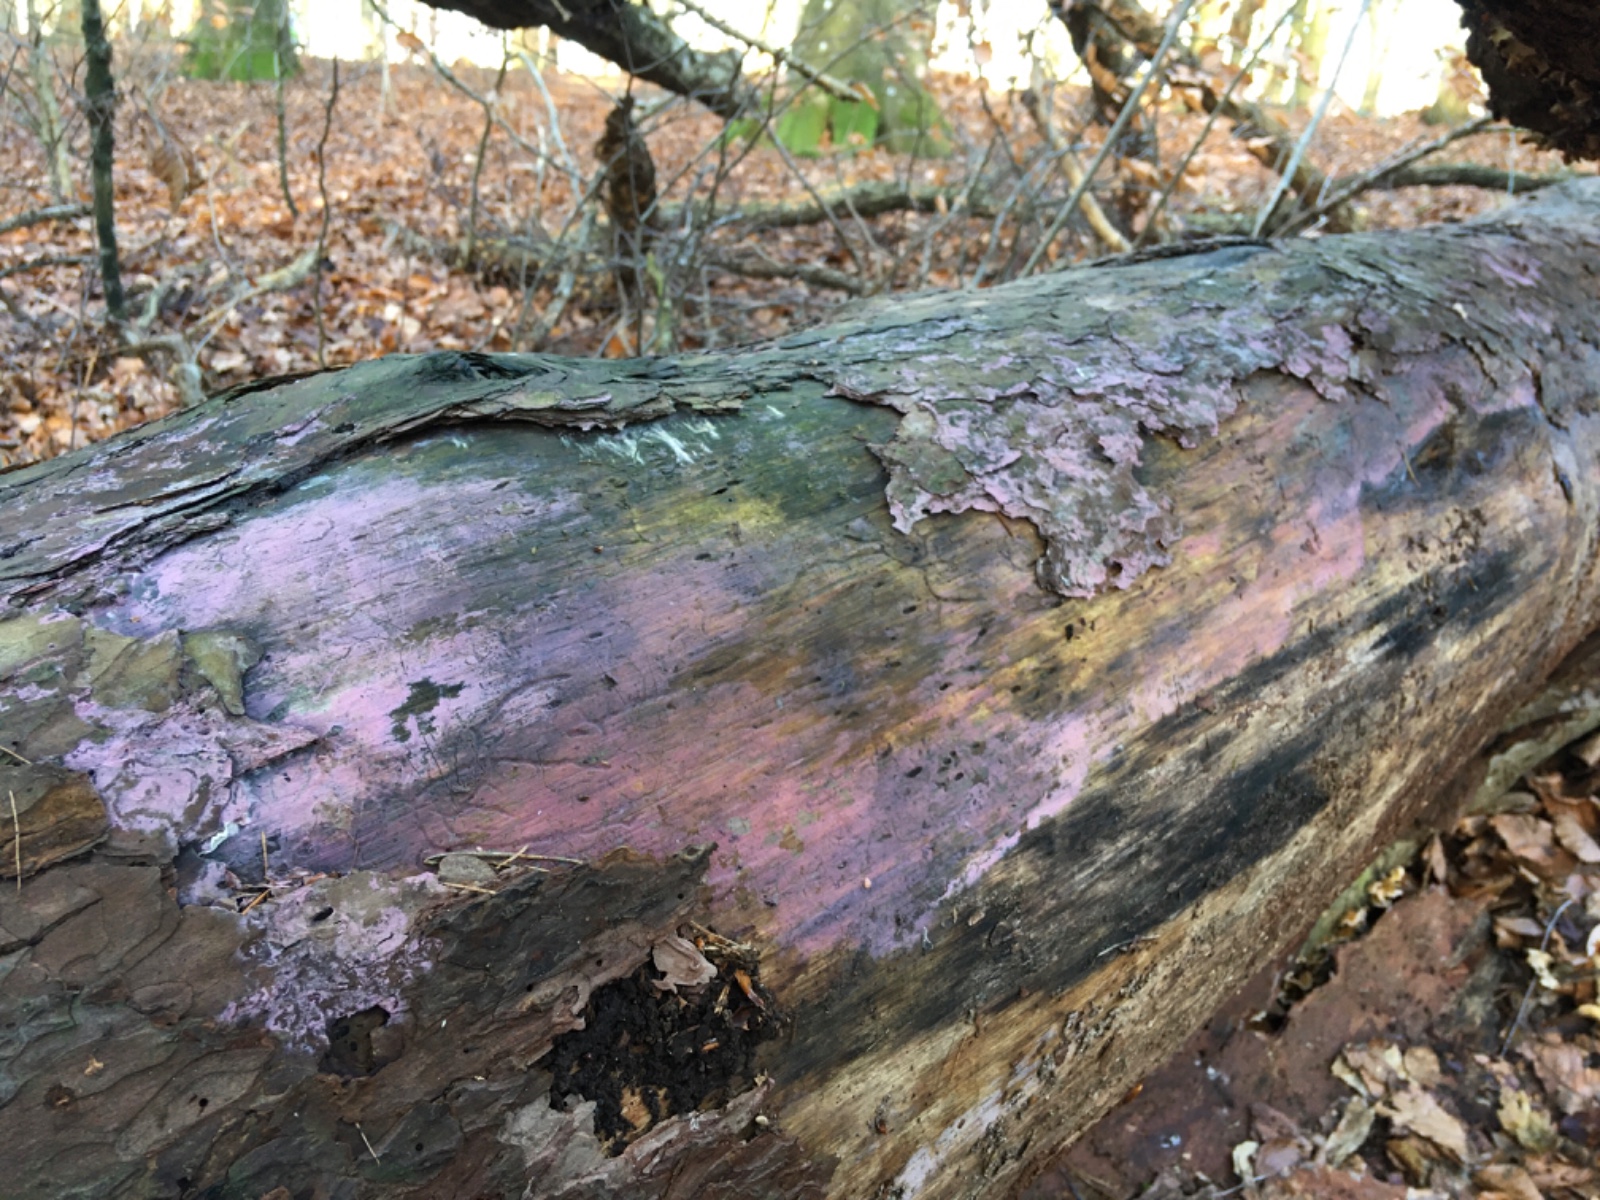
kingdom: Fungi
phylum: Basidiomycota
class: Agaricomycetes
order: Cantharellales
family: Tulasnellaceae
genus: Tulasnella
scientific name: Tulasnella violea
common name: violet ballonhinde
